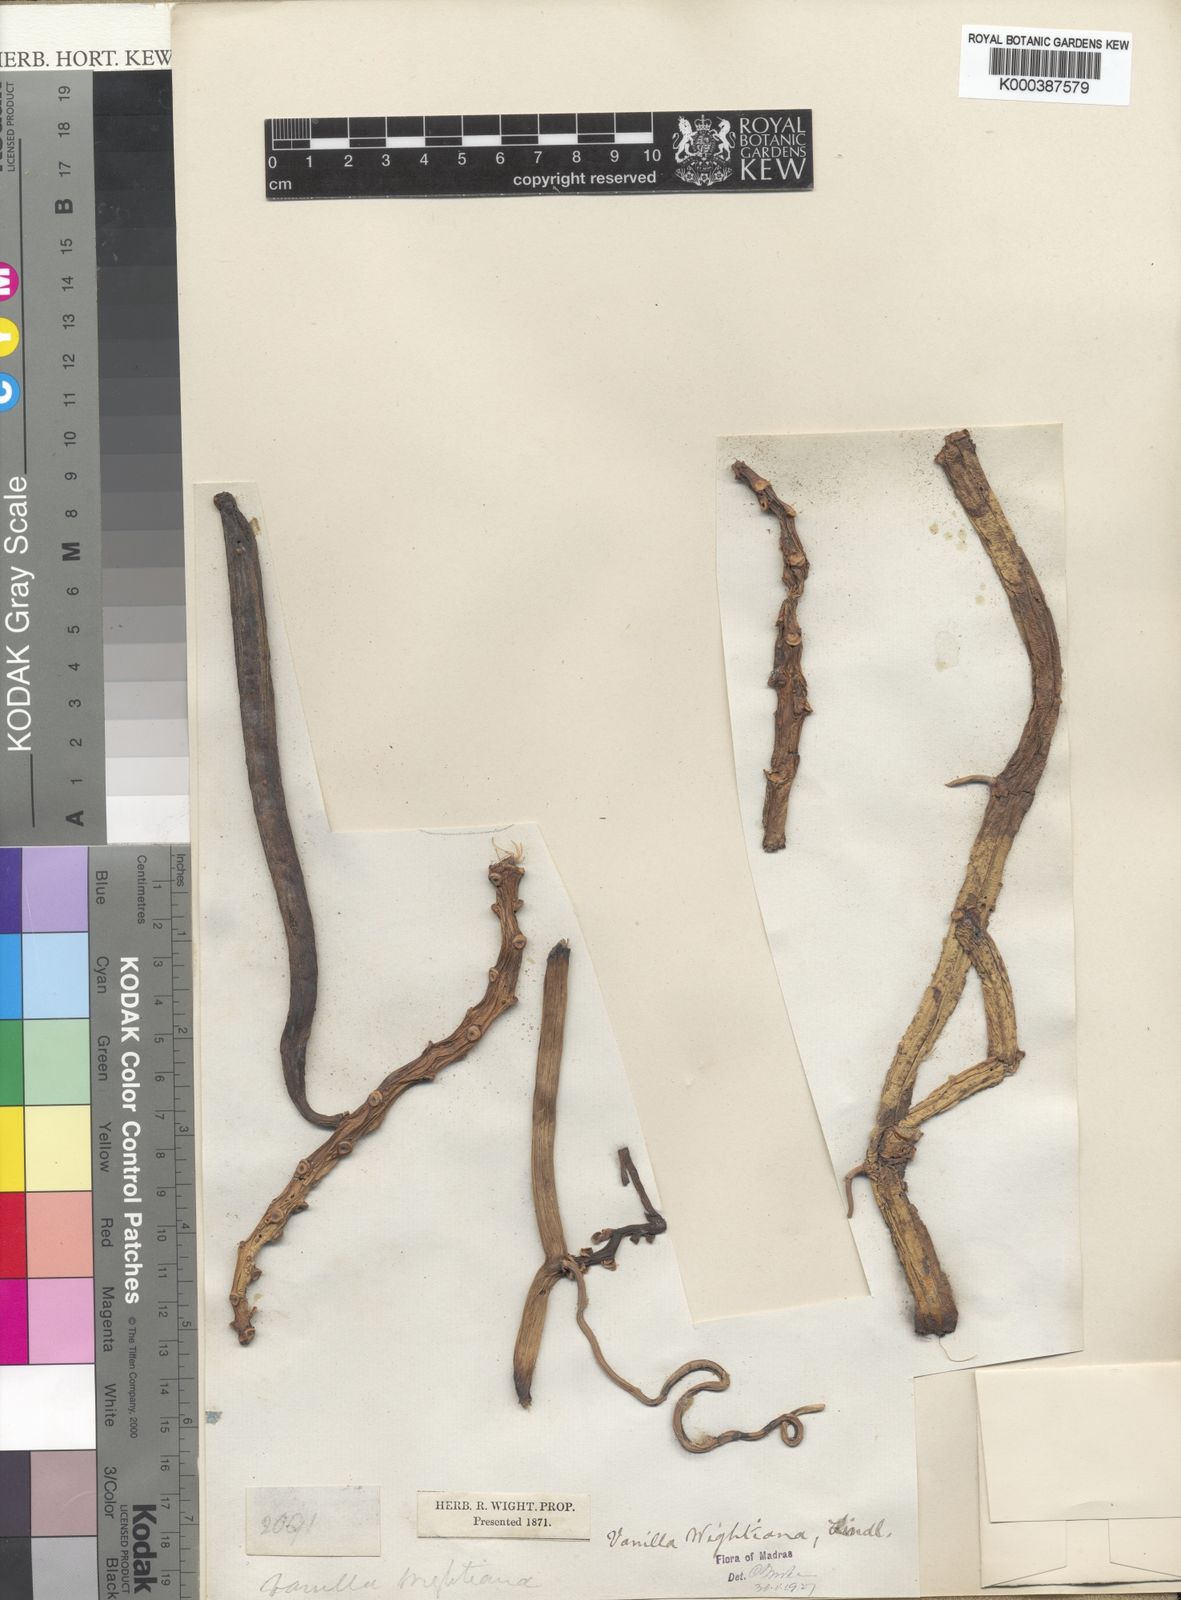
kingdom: Plantae
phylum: Tracheophyta
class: Liliopsida
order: Asparagales
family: Orchidaceae
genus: Vanilla
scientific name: Vanilla wightii
